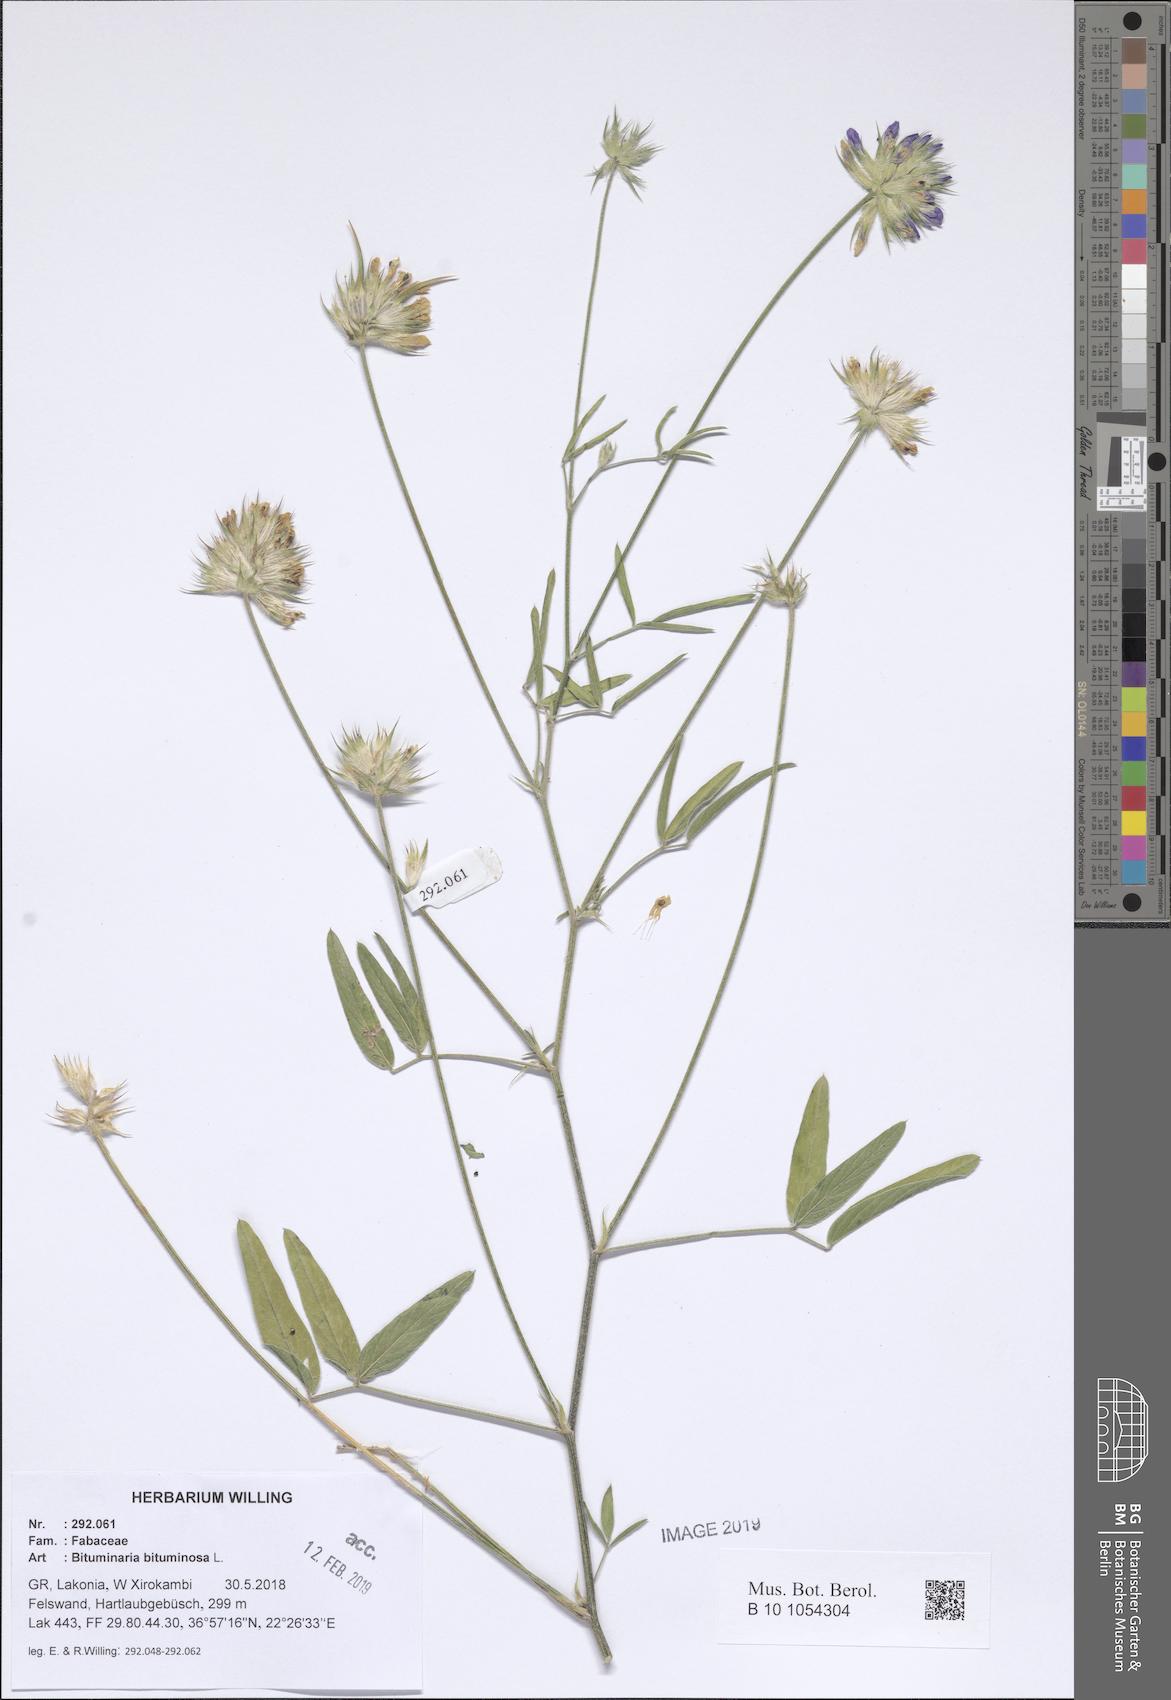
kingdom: Plantae
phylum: Tracheophyta
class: Magnoliopsida
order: Fabales
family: Fabaceae
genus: Bituminaria
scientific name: Bituminaria bituminosa
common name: Arabian pea
